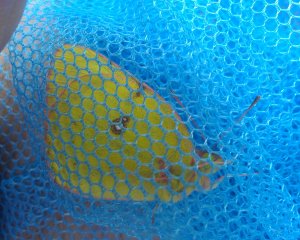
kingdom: Animalia
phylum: Arthropoda
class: Insecta
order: Lepidoptera
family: Pieridae
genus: Colias
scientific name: Colias philodice
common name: Clouded Sulphur
